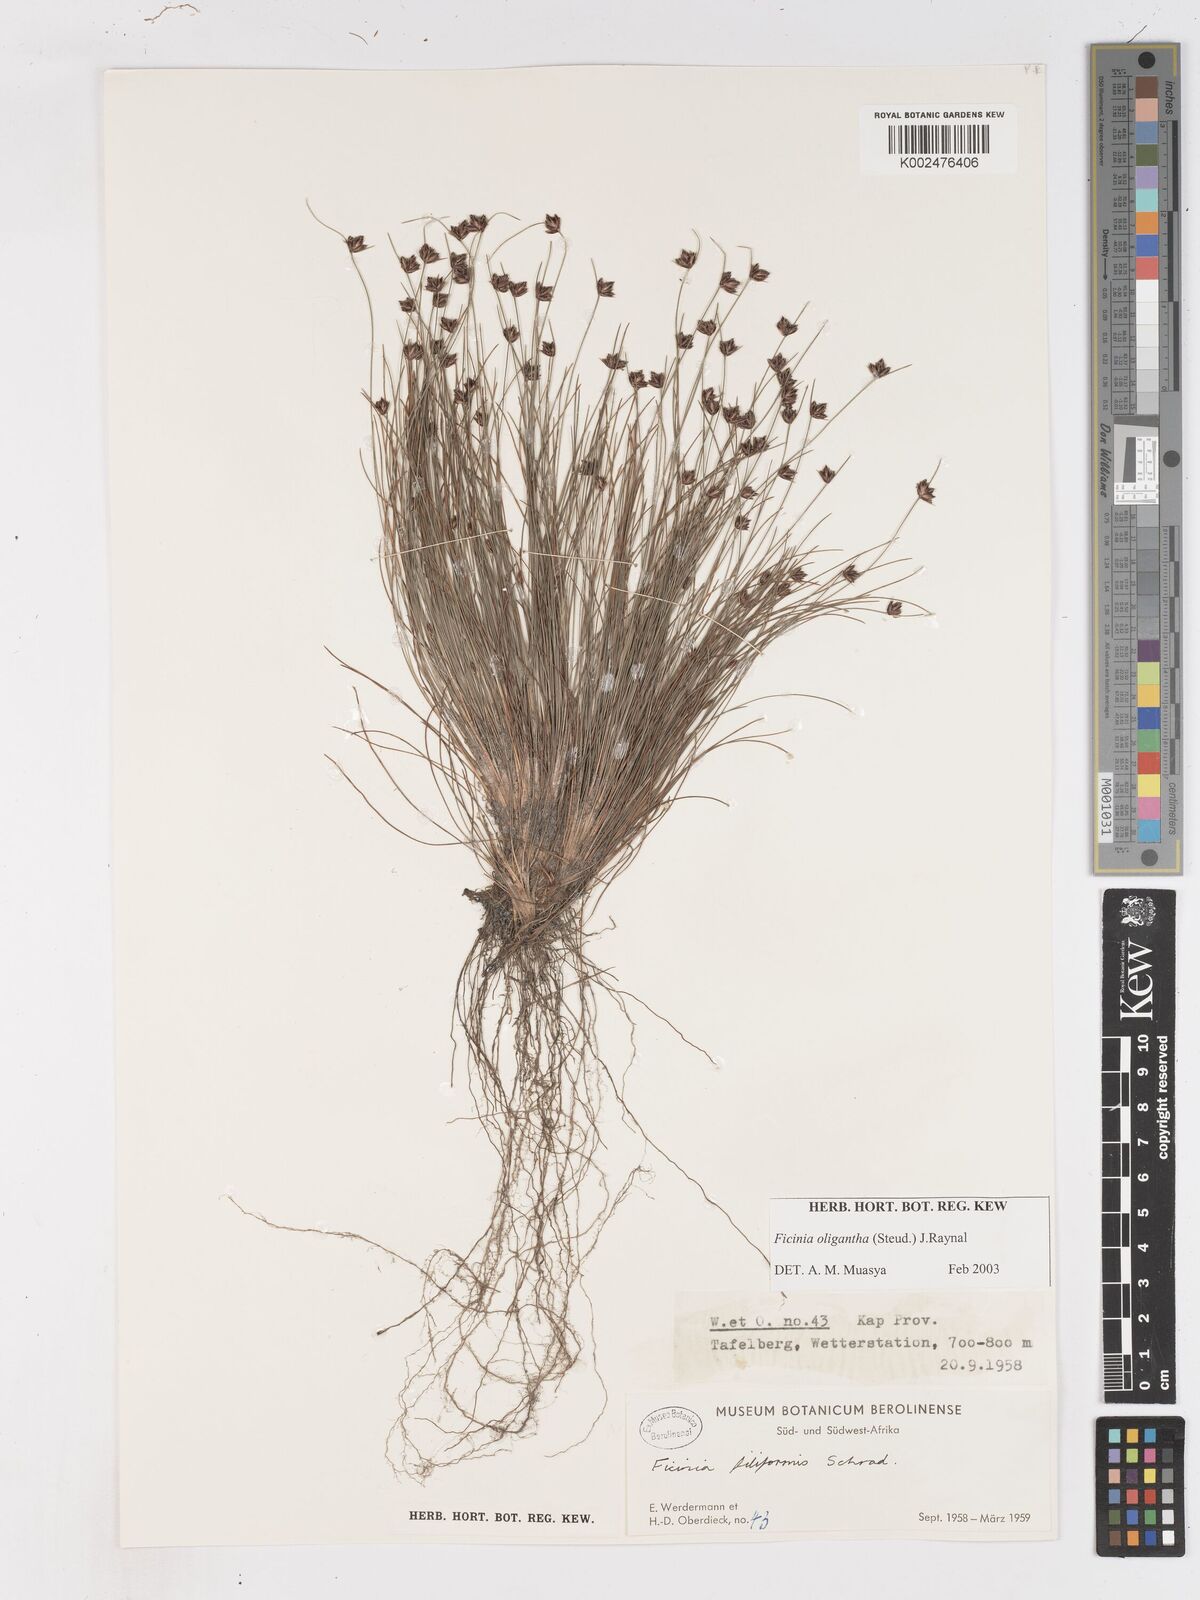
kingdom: Plantae
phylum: Tracheophyta
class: Liliopsida
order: Poales
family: Cyperaceae
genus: Ficinia
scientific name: Ficinia oligantha
